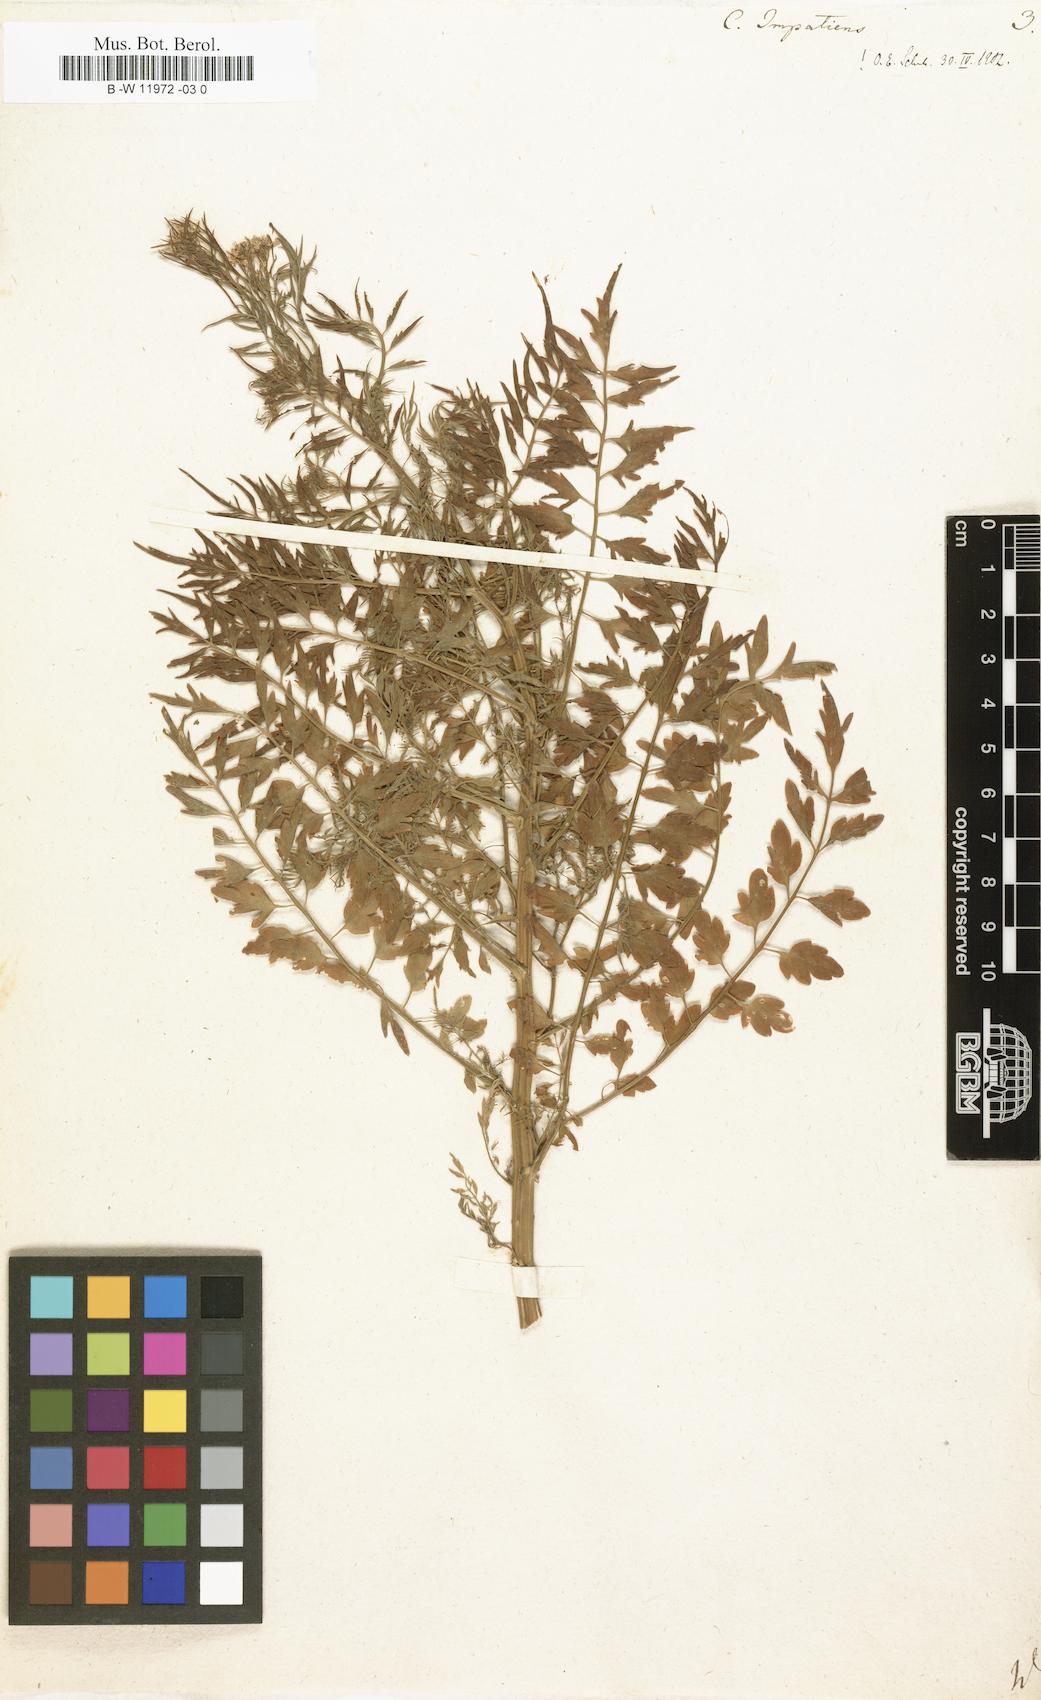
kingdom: Plantae
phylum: Tracheophyta
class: Magnoliopsida
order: Brassicales
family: Brassicaceae
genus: Cardamine
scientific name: Cardamine impatiens
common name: Narrow-leaved bitter-cress
